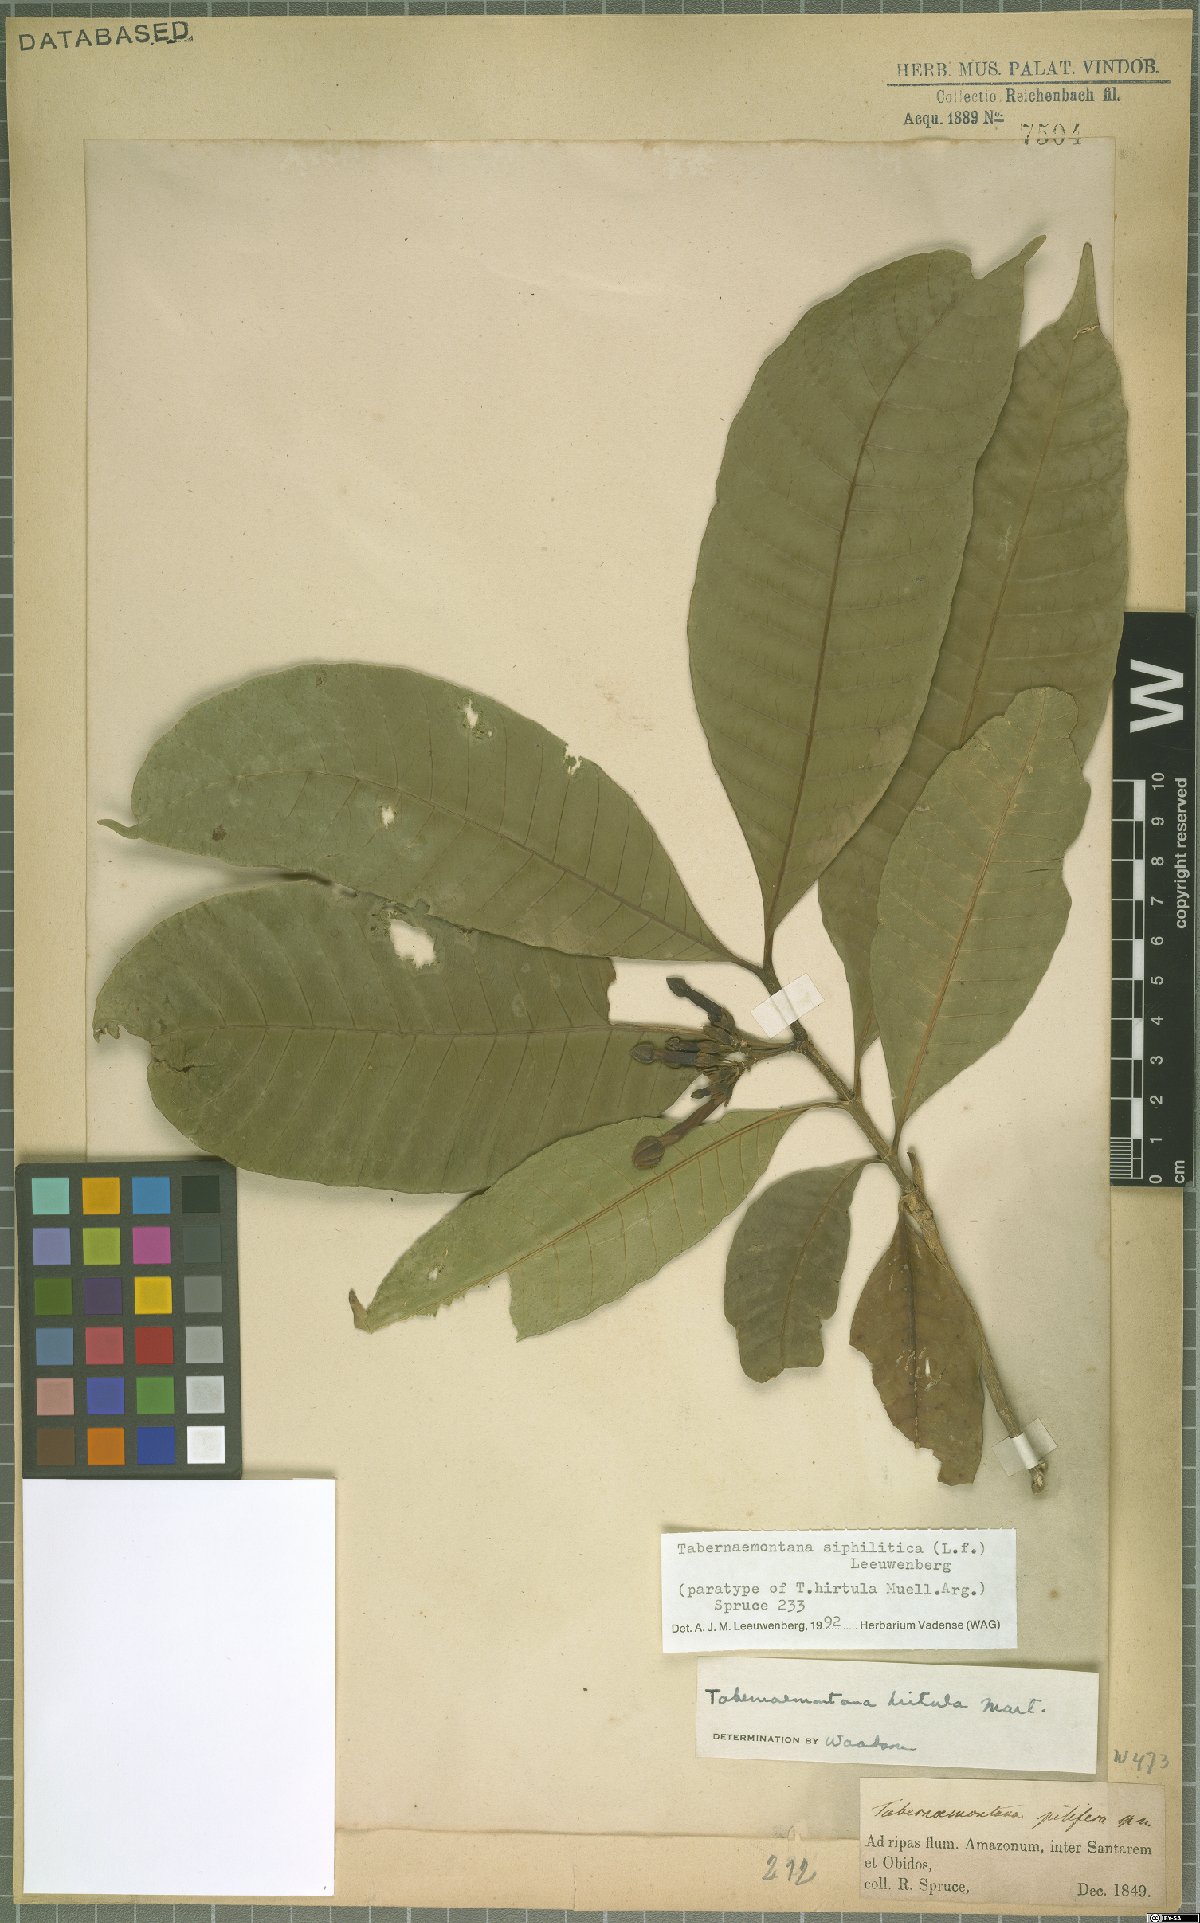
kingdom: Plantae
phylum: Tracheophyta
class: Magnoliopsida
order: Gentianales
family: Apocynaceae
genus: Tabernaemontana
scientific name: Tabernaemontana siphilitica
